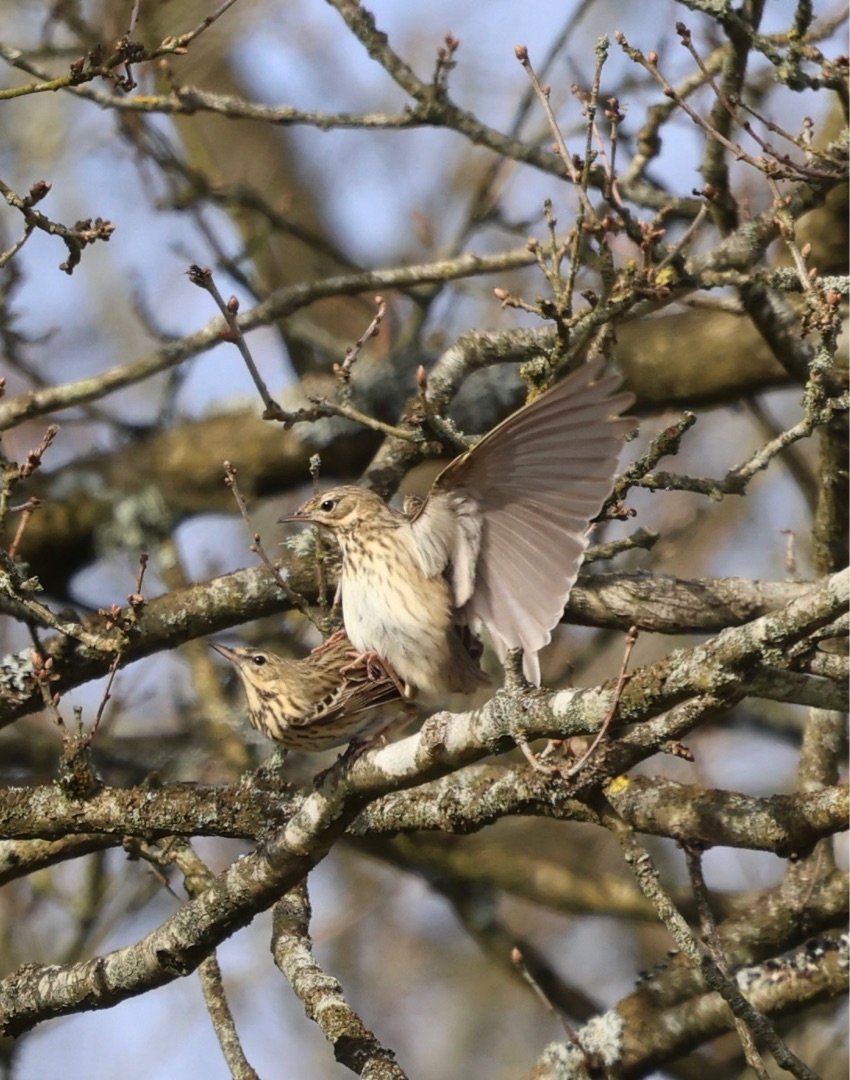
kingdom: Animalia
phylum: Chordata
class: Aves
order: Passeriformes
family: Motacillidae
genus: Anthus
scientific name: Anthus trivialis
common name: Skovpiber
